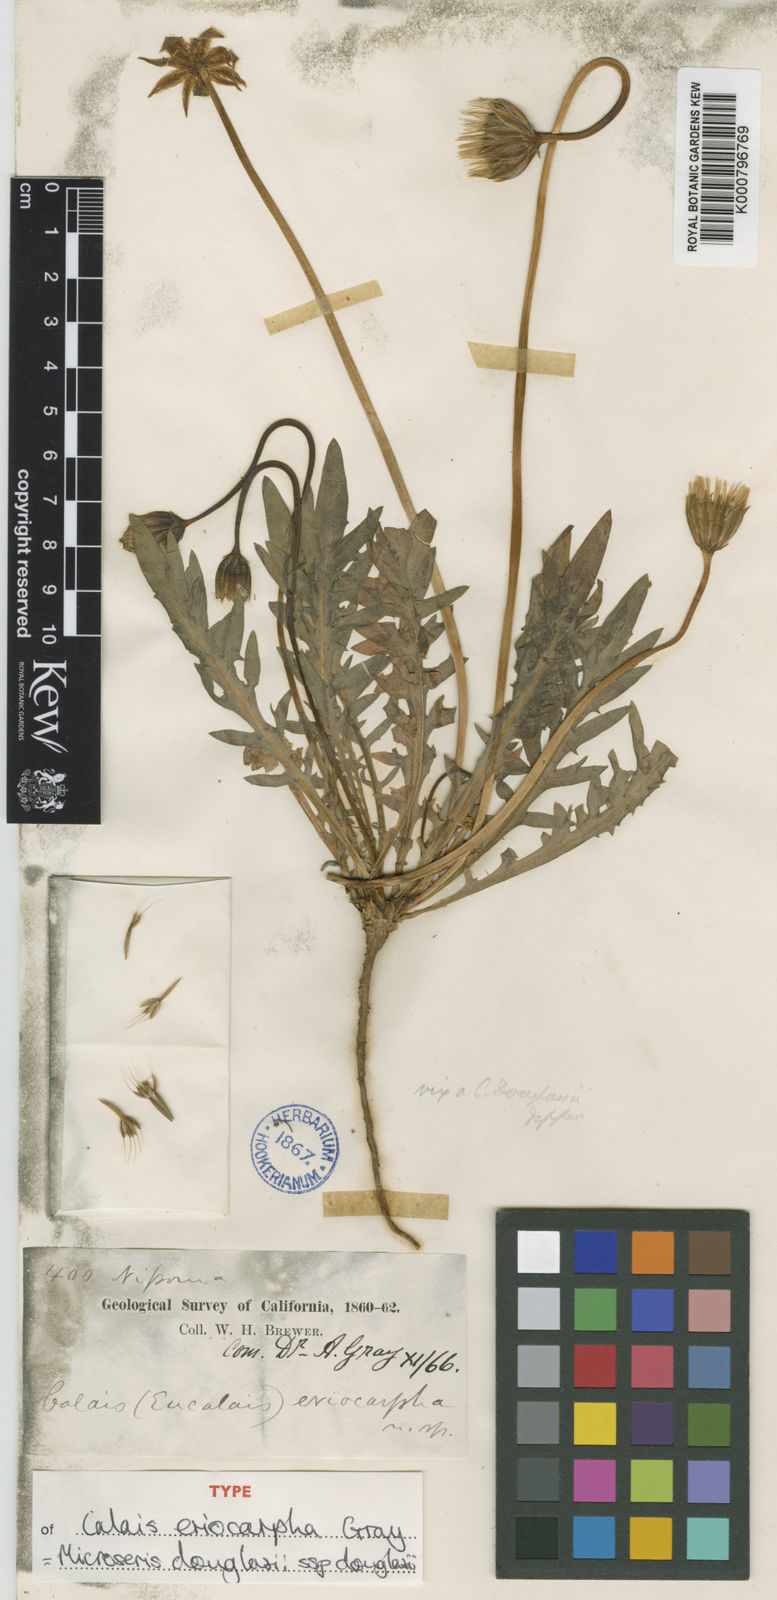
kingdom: Plantae
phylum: Tracheophyta
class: Magnoliopsida
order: Asterales
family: Asteraceae
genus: Microseris
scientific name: Microseris douglasii
